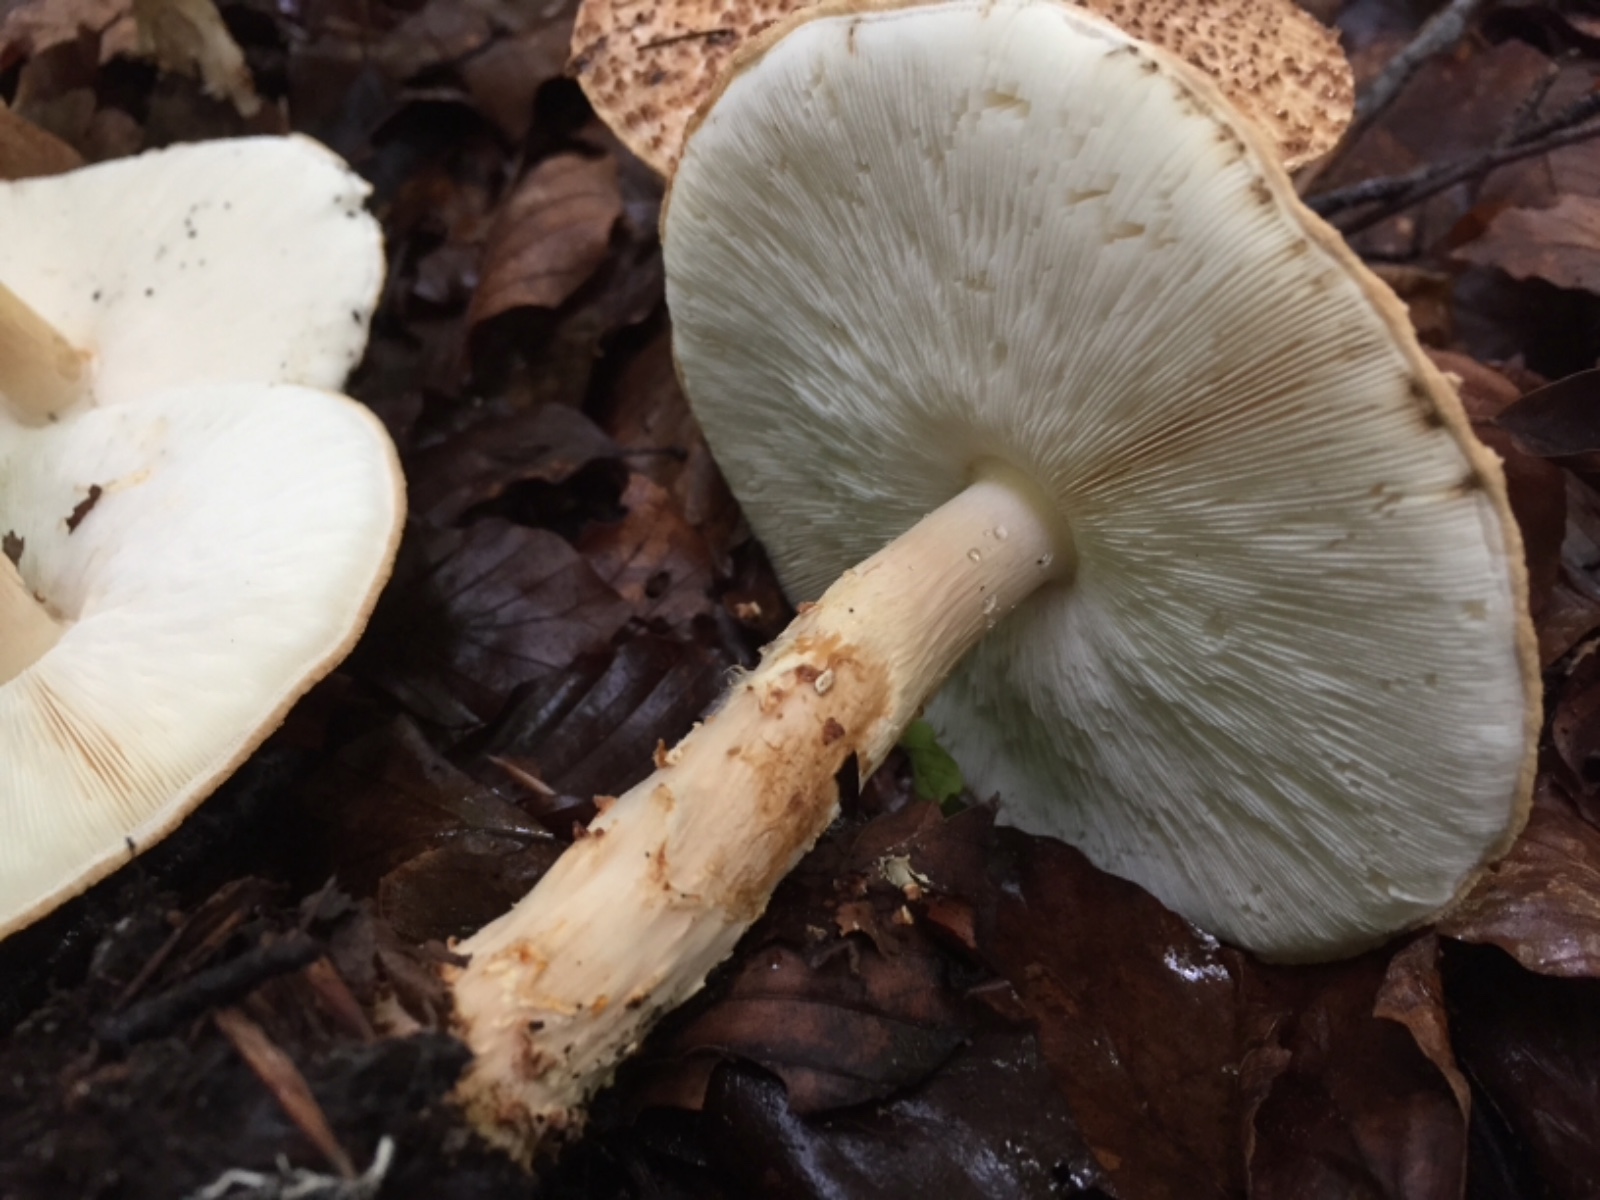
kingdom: Fungi
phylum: Basidiomycota
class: Agaricomycetes
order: Agaricales
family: Agaricaceae
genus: Echinoderma
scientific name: Echinoderma asperum
